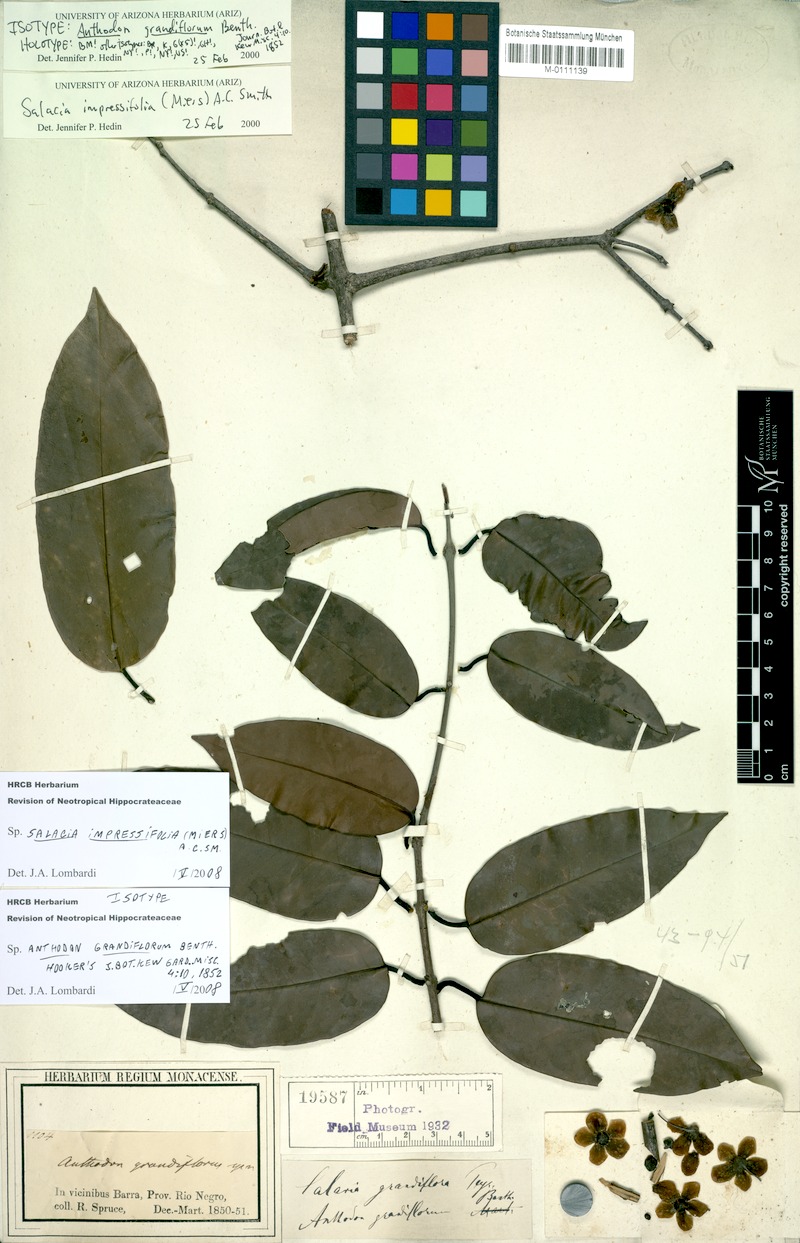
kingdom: Plantae
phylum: Tracheophyta
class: Magnoliopsida
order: Celastrales
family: Celastraceae
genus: Salacia
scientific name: Salacia impressifolia
